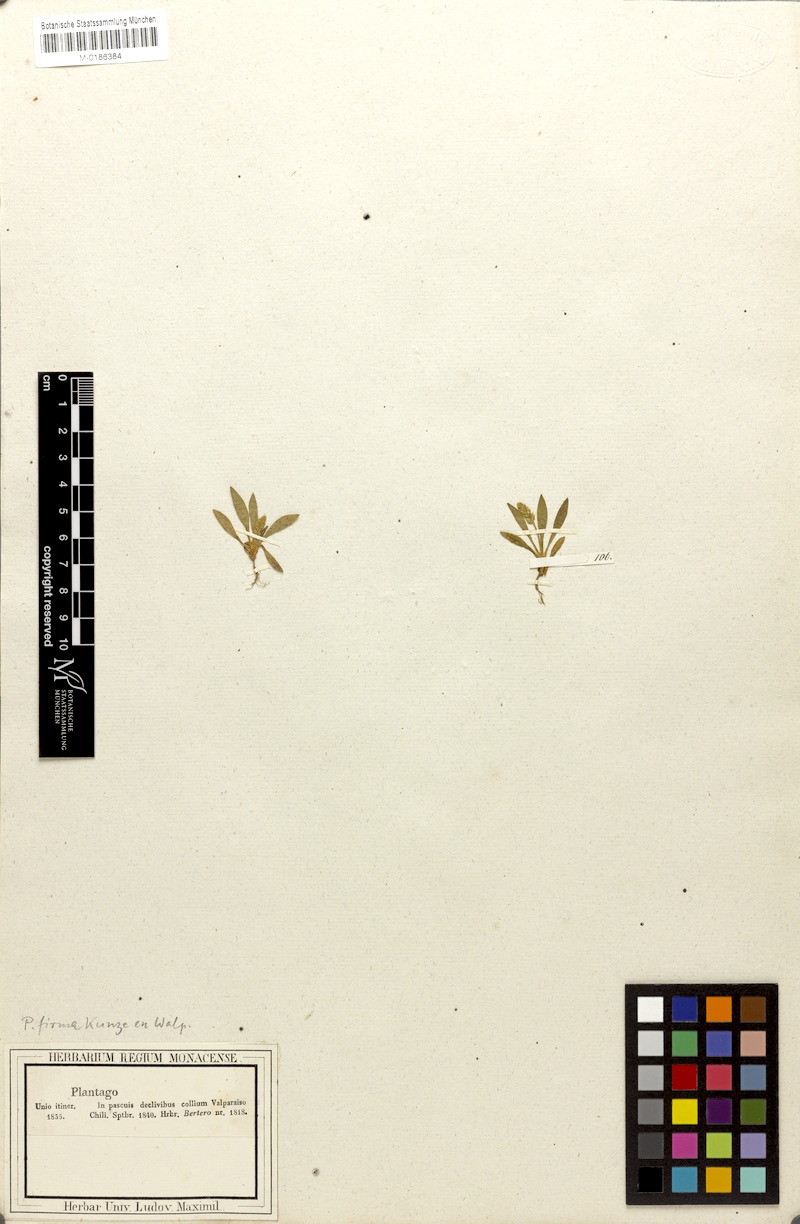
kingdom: Plantae
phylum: Tracheophyta
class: Magnoliopsida
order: Lamiales
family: Plantaginaceae
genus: Plantago
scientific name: Plantago firma
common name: Chilean plantain
